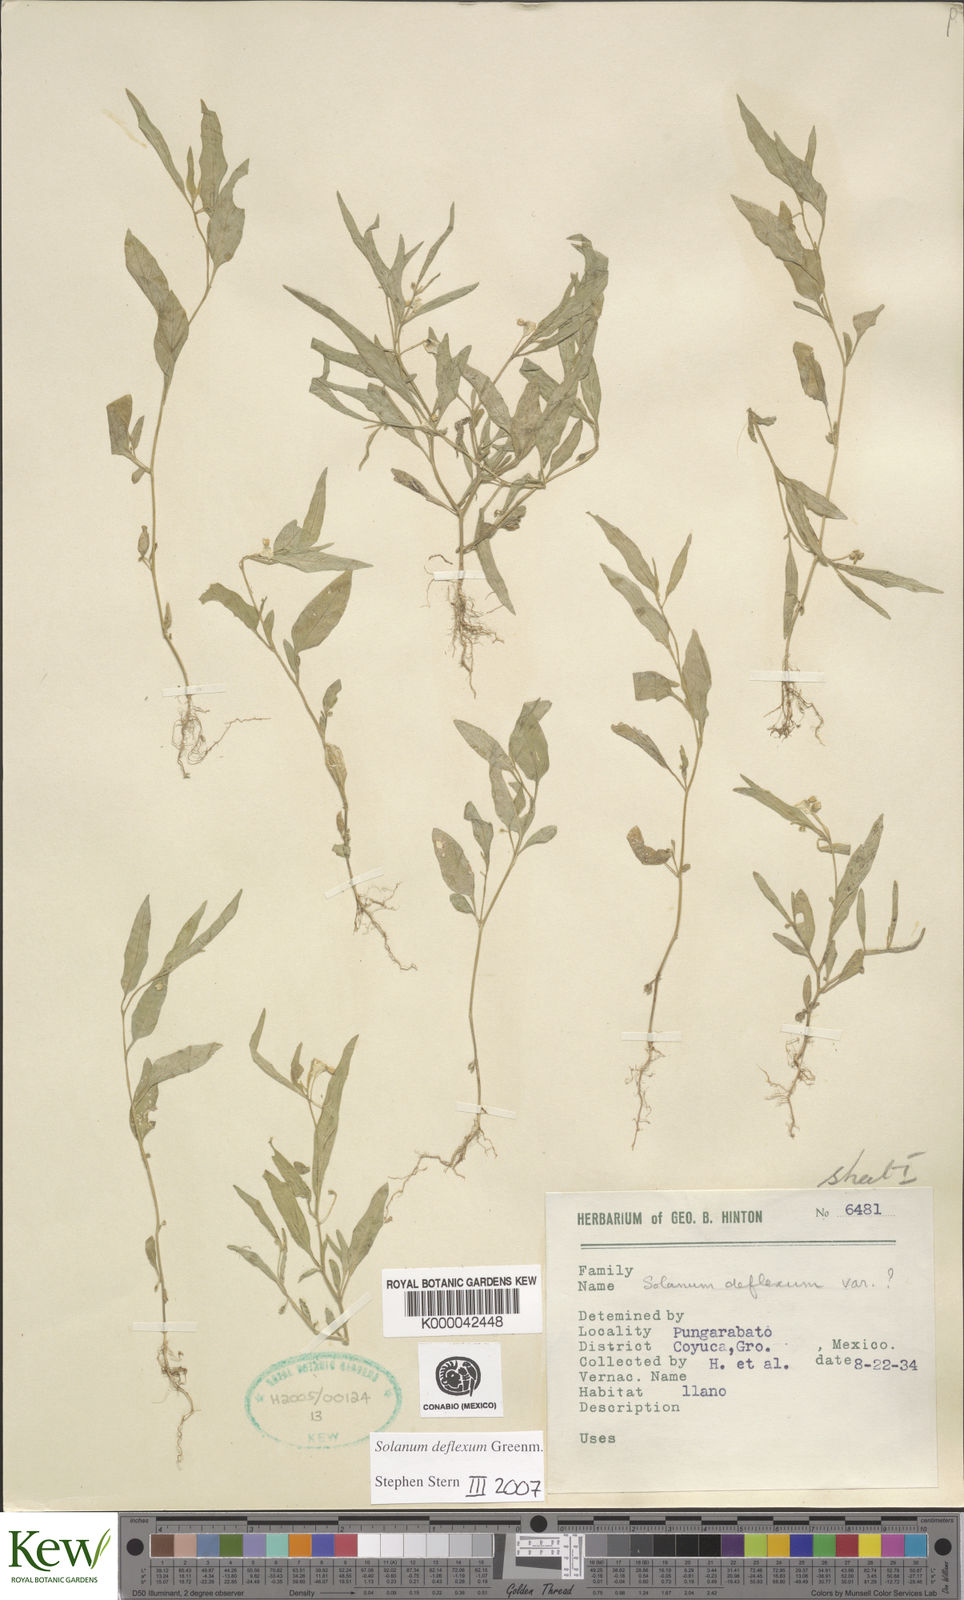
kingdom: Plantae
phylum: Tracheophyta
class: Magnoliopsida
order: Solanales
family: Solanaceae
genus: Solanum
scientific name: Solanum deflexum
